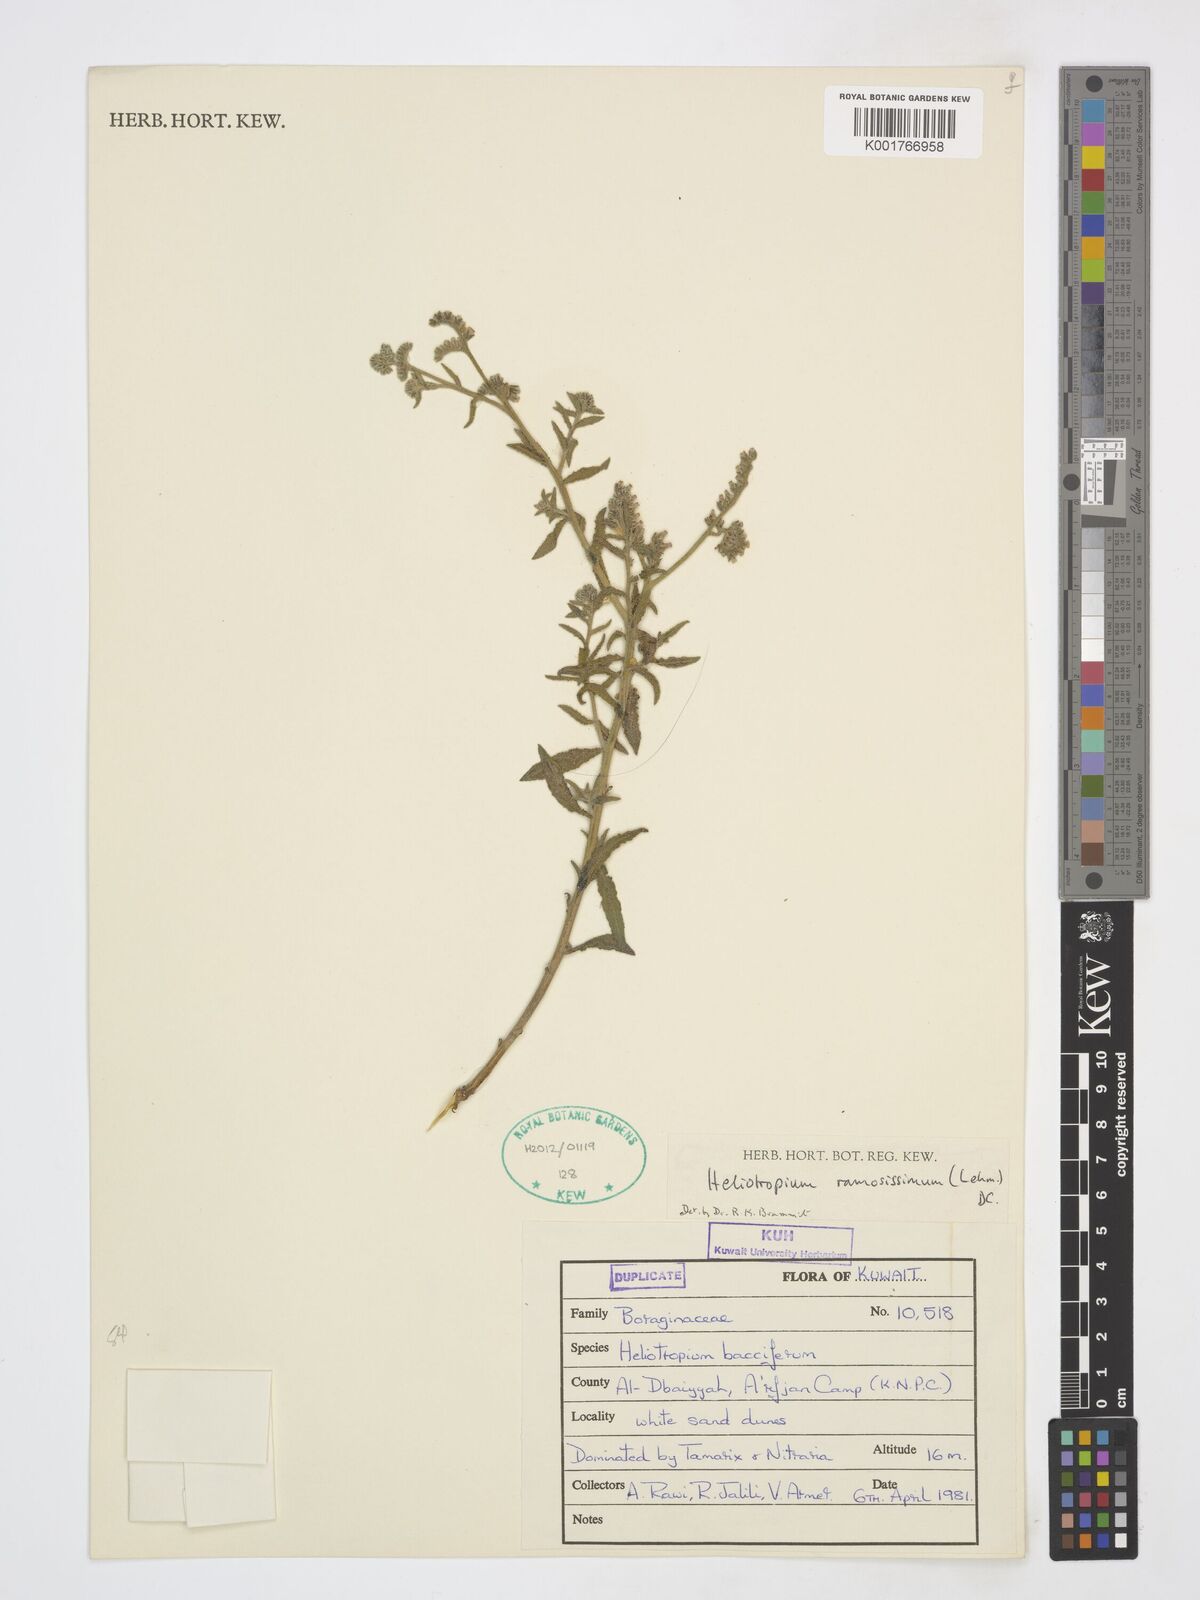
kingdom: Plantae
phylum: Tracheophyta
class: Magnoliopsida
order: Boraginales
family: Heliotropiaceae
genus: Heliotropium
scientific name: Heliotropium ramosissimum
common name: Wavy heliotrope
